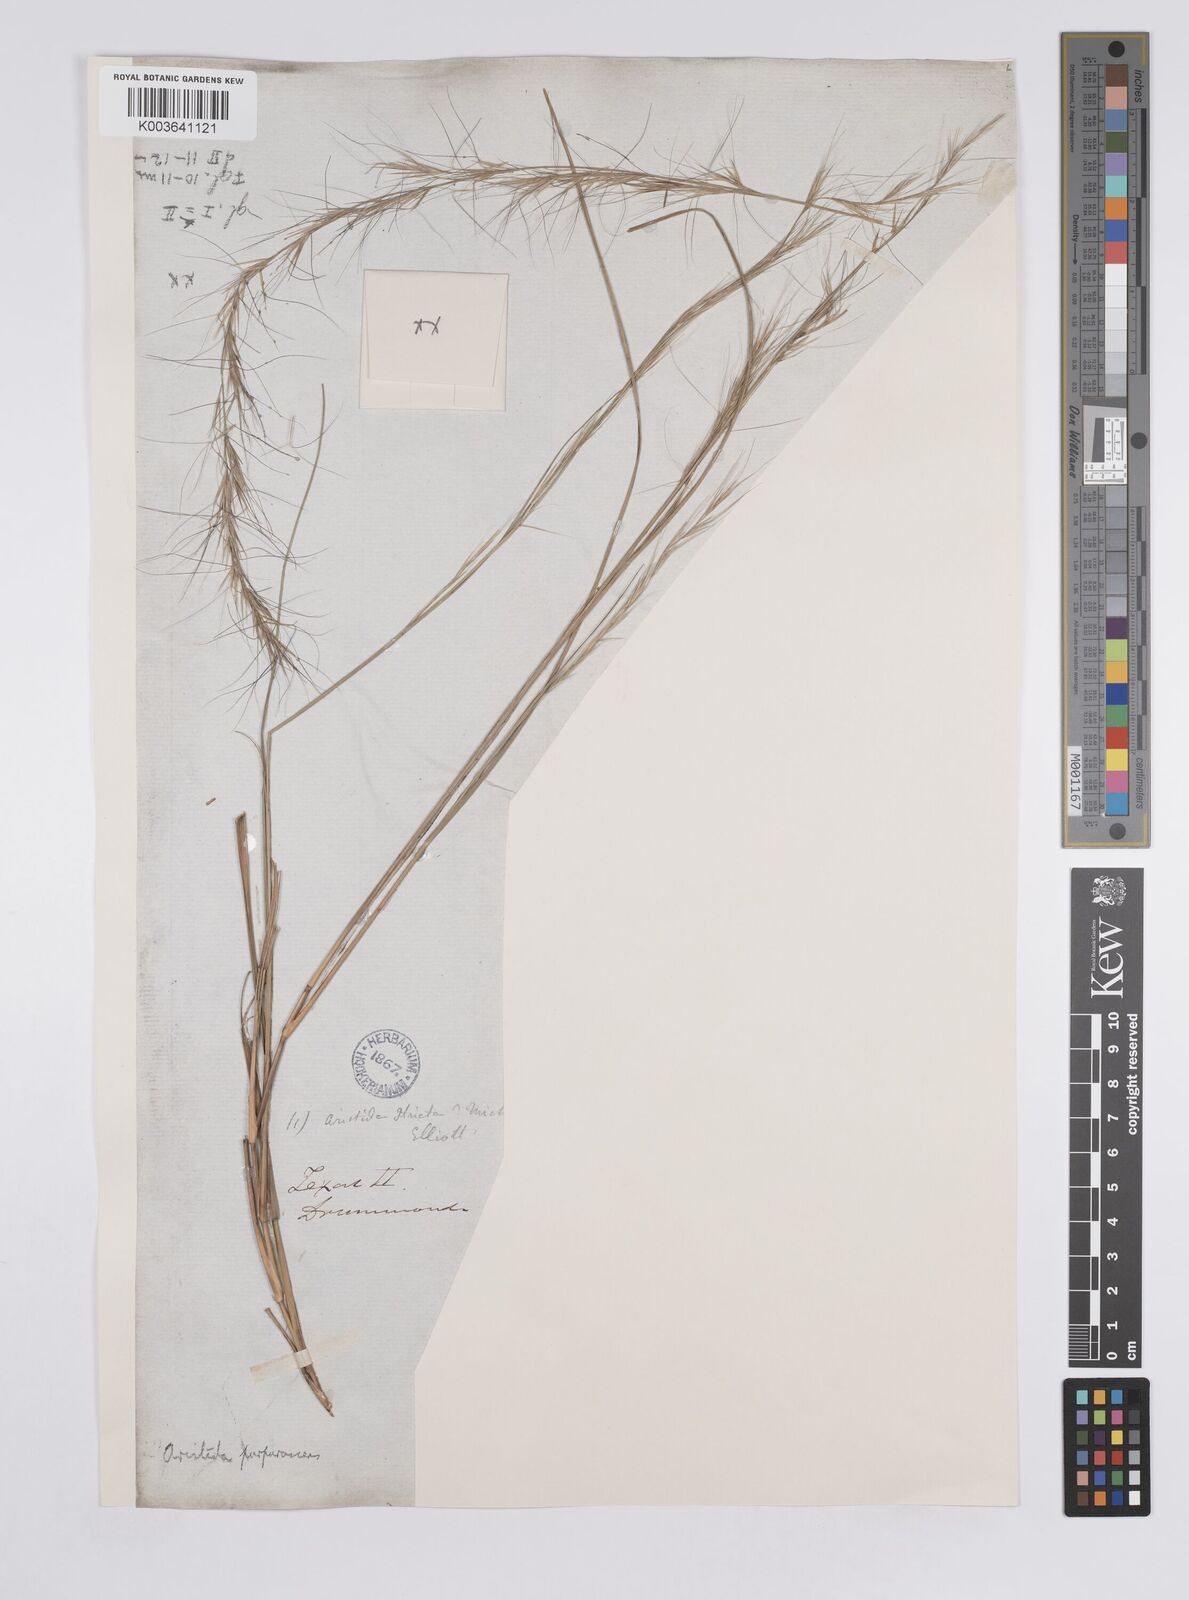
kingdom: Plantae
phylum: Tracheophyta
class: Liliopsida
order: Poales
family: Poaceae
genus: Aristida
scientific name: Aristida purpurascens
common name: Arrow-feather
